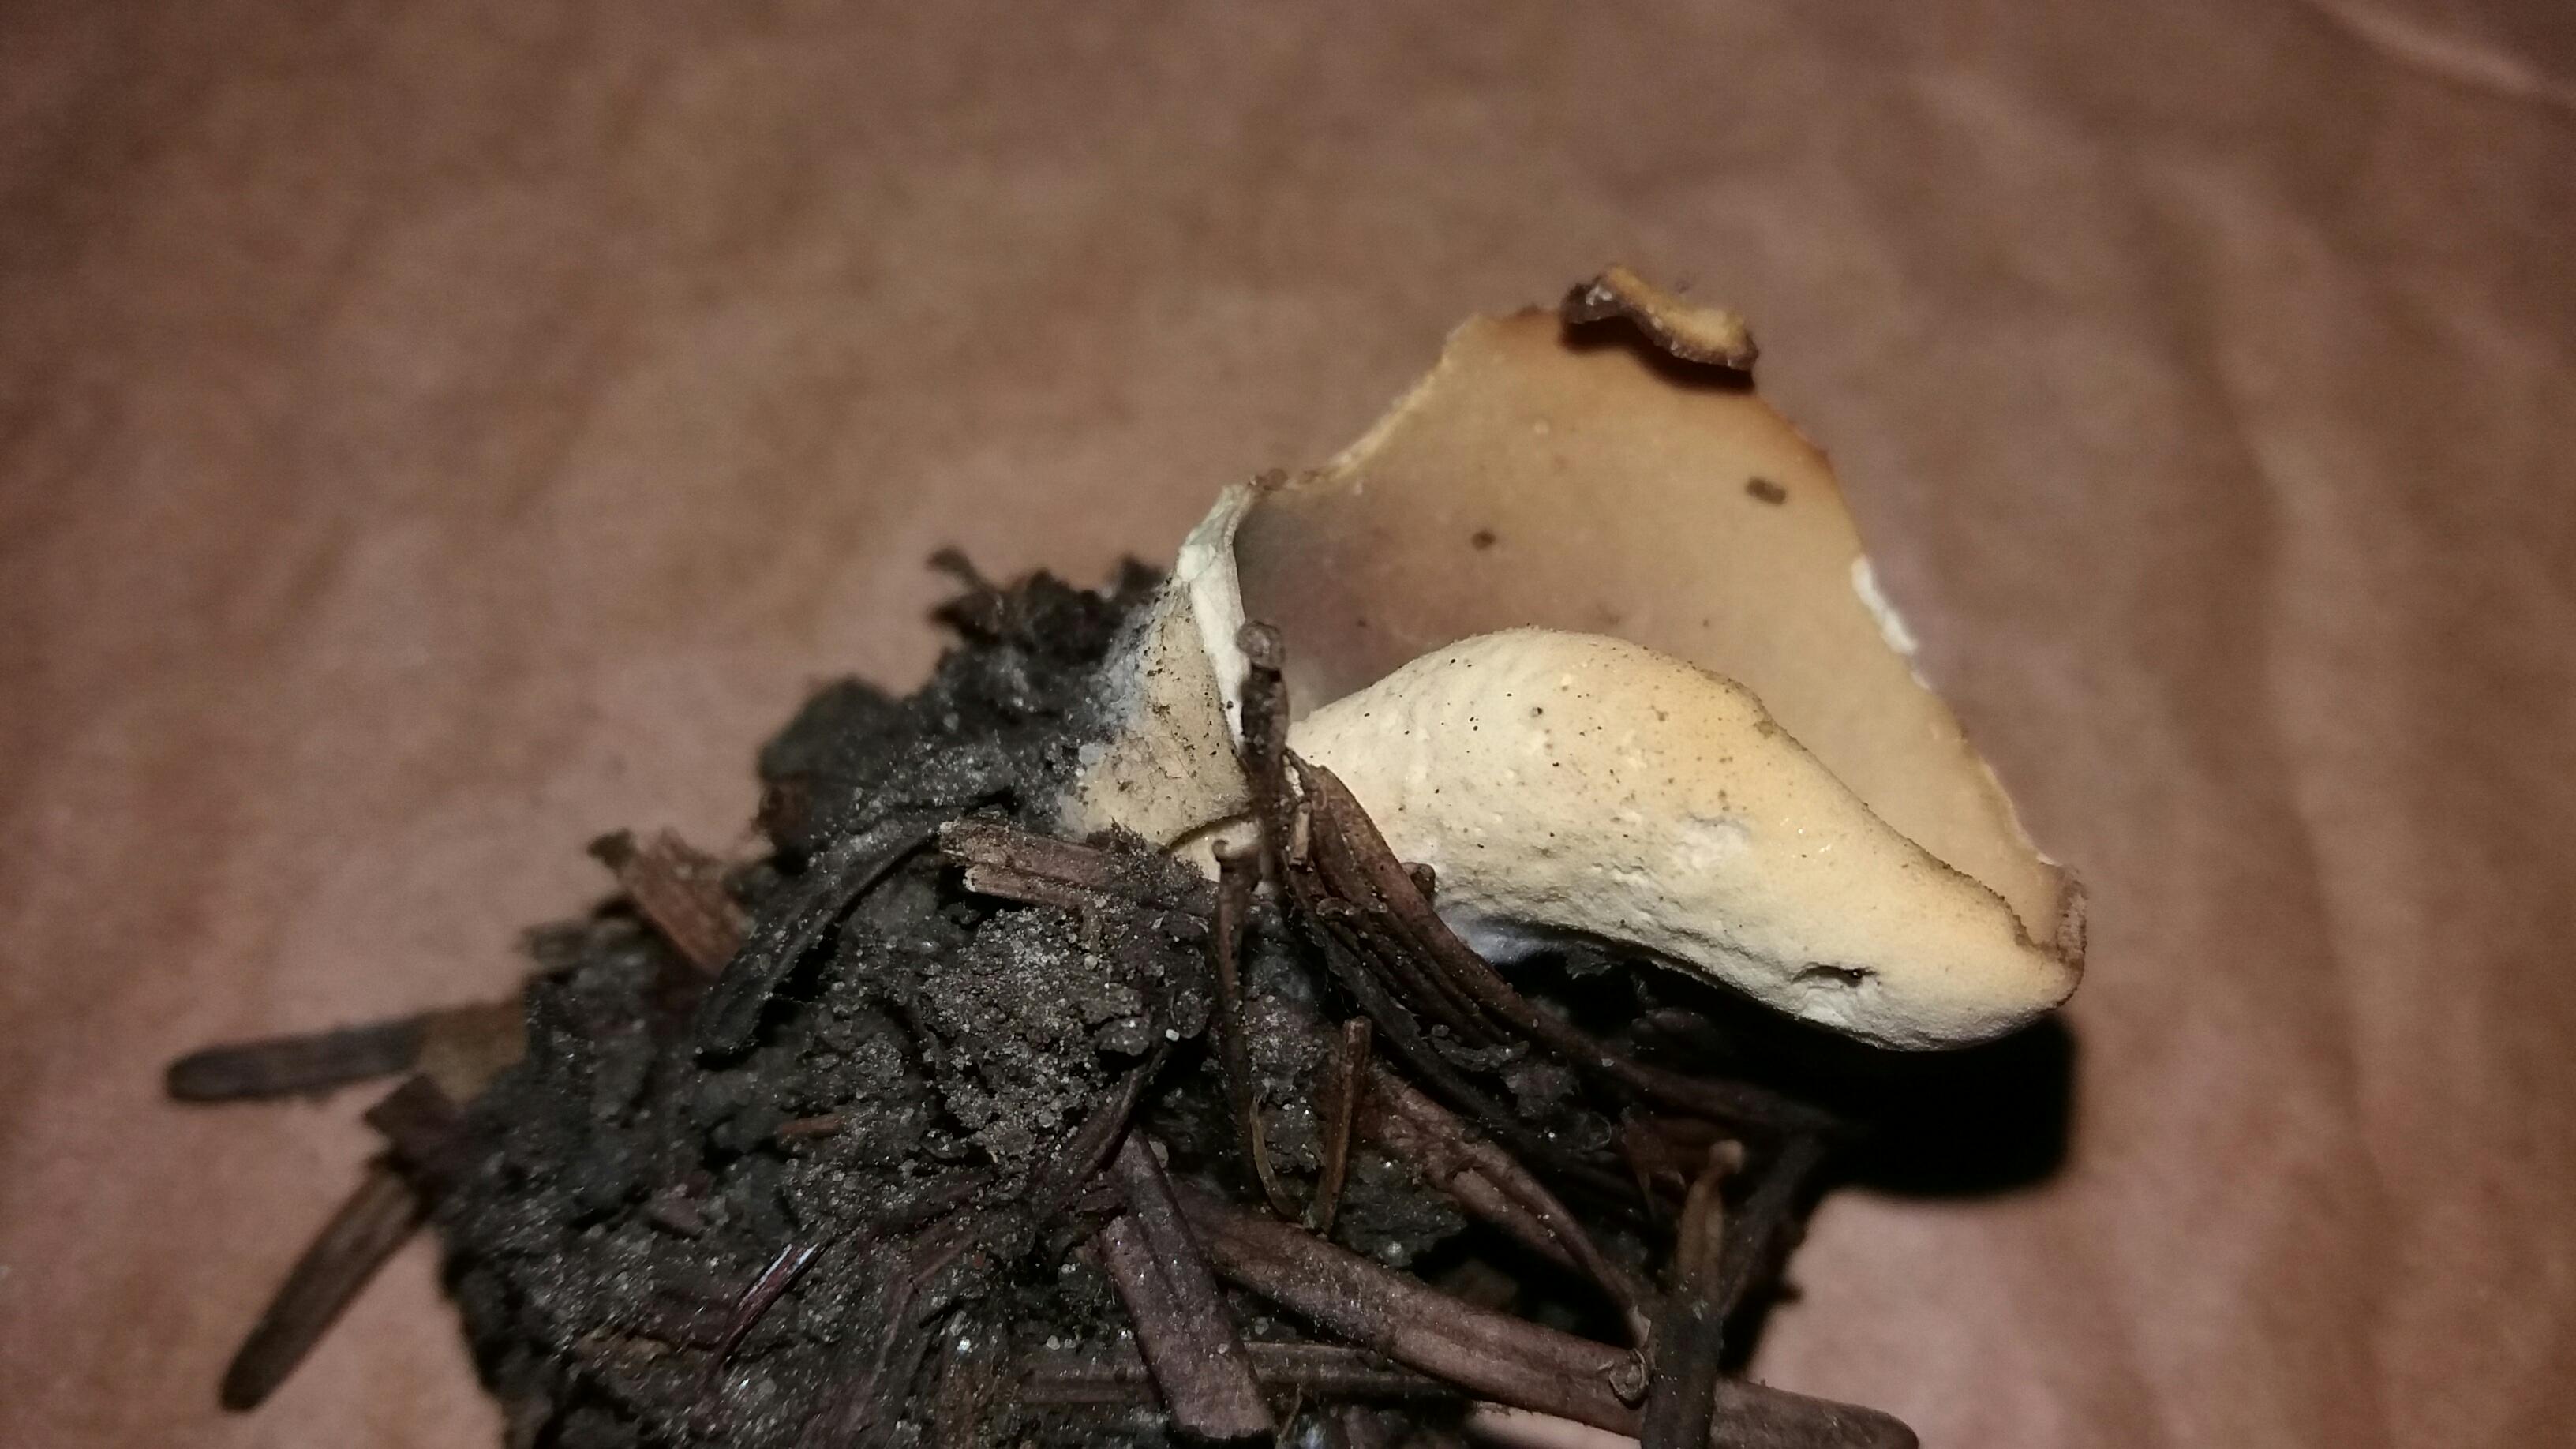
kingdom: Fungi
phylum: Ascomycota
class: Pezizomycetes
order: Pezizales
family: Otideaceae
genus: Otidea
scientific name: Otidea
